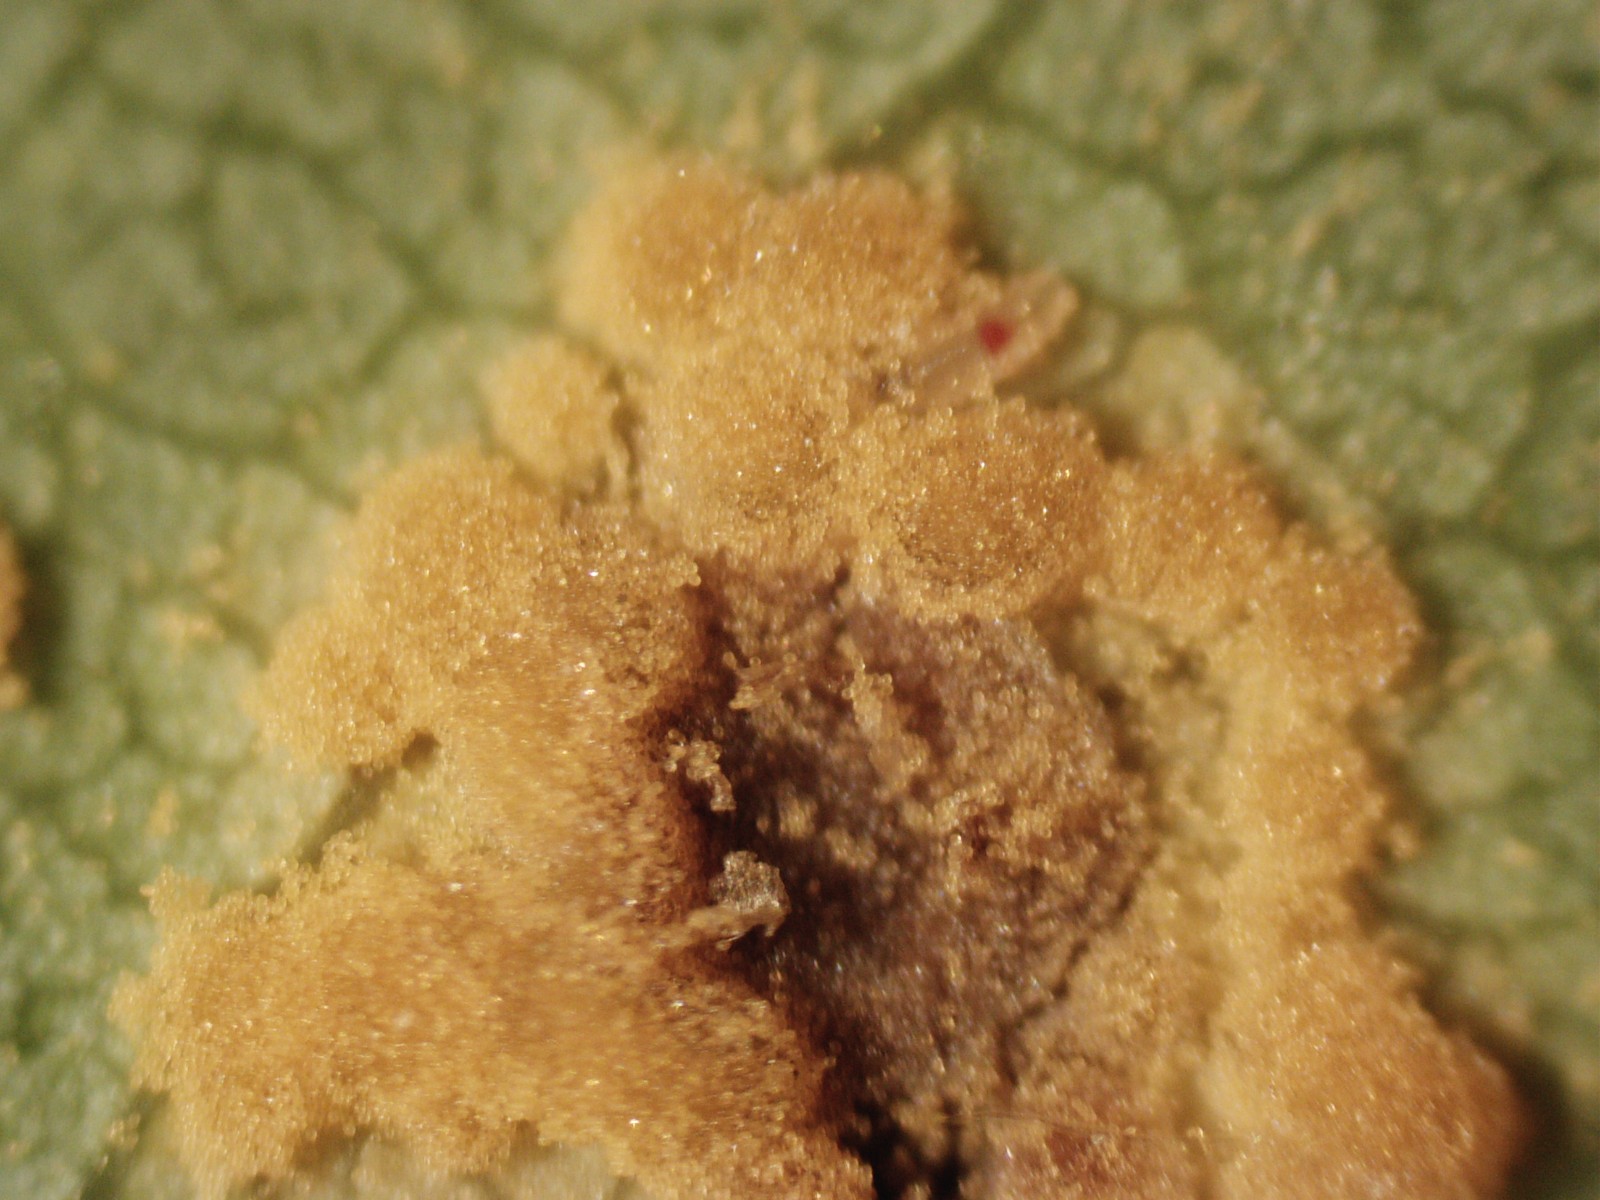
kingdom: Fungi
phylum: Basidiomycota
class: Pucciniomycetes
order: Pucciniales
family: Melampsoraceae
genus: Melampsora
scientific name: Melampsora populnea
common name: poppel-skorperust
